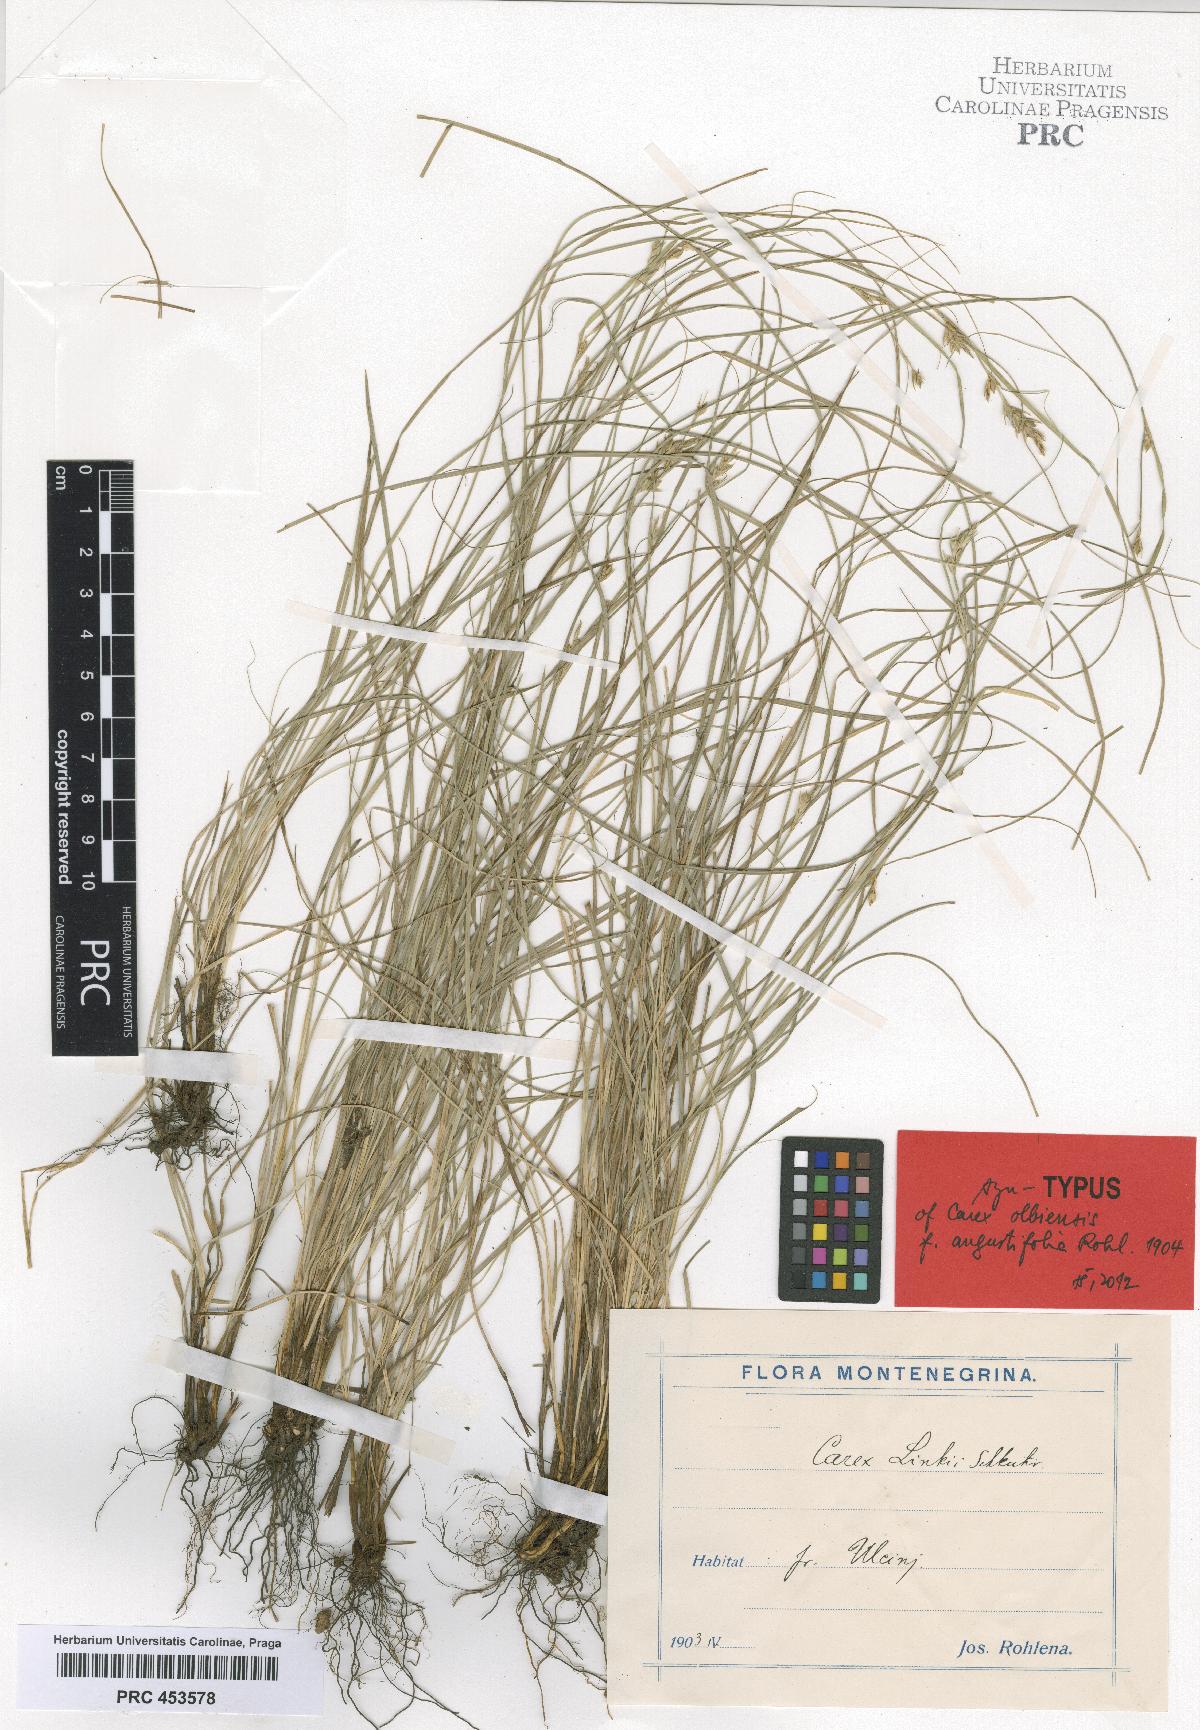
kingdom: Plantae
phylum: Tracheophyta
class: Liliopsida
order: Poales
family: Cyperaceae
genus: Carex
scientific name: Carex distachya
